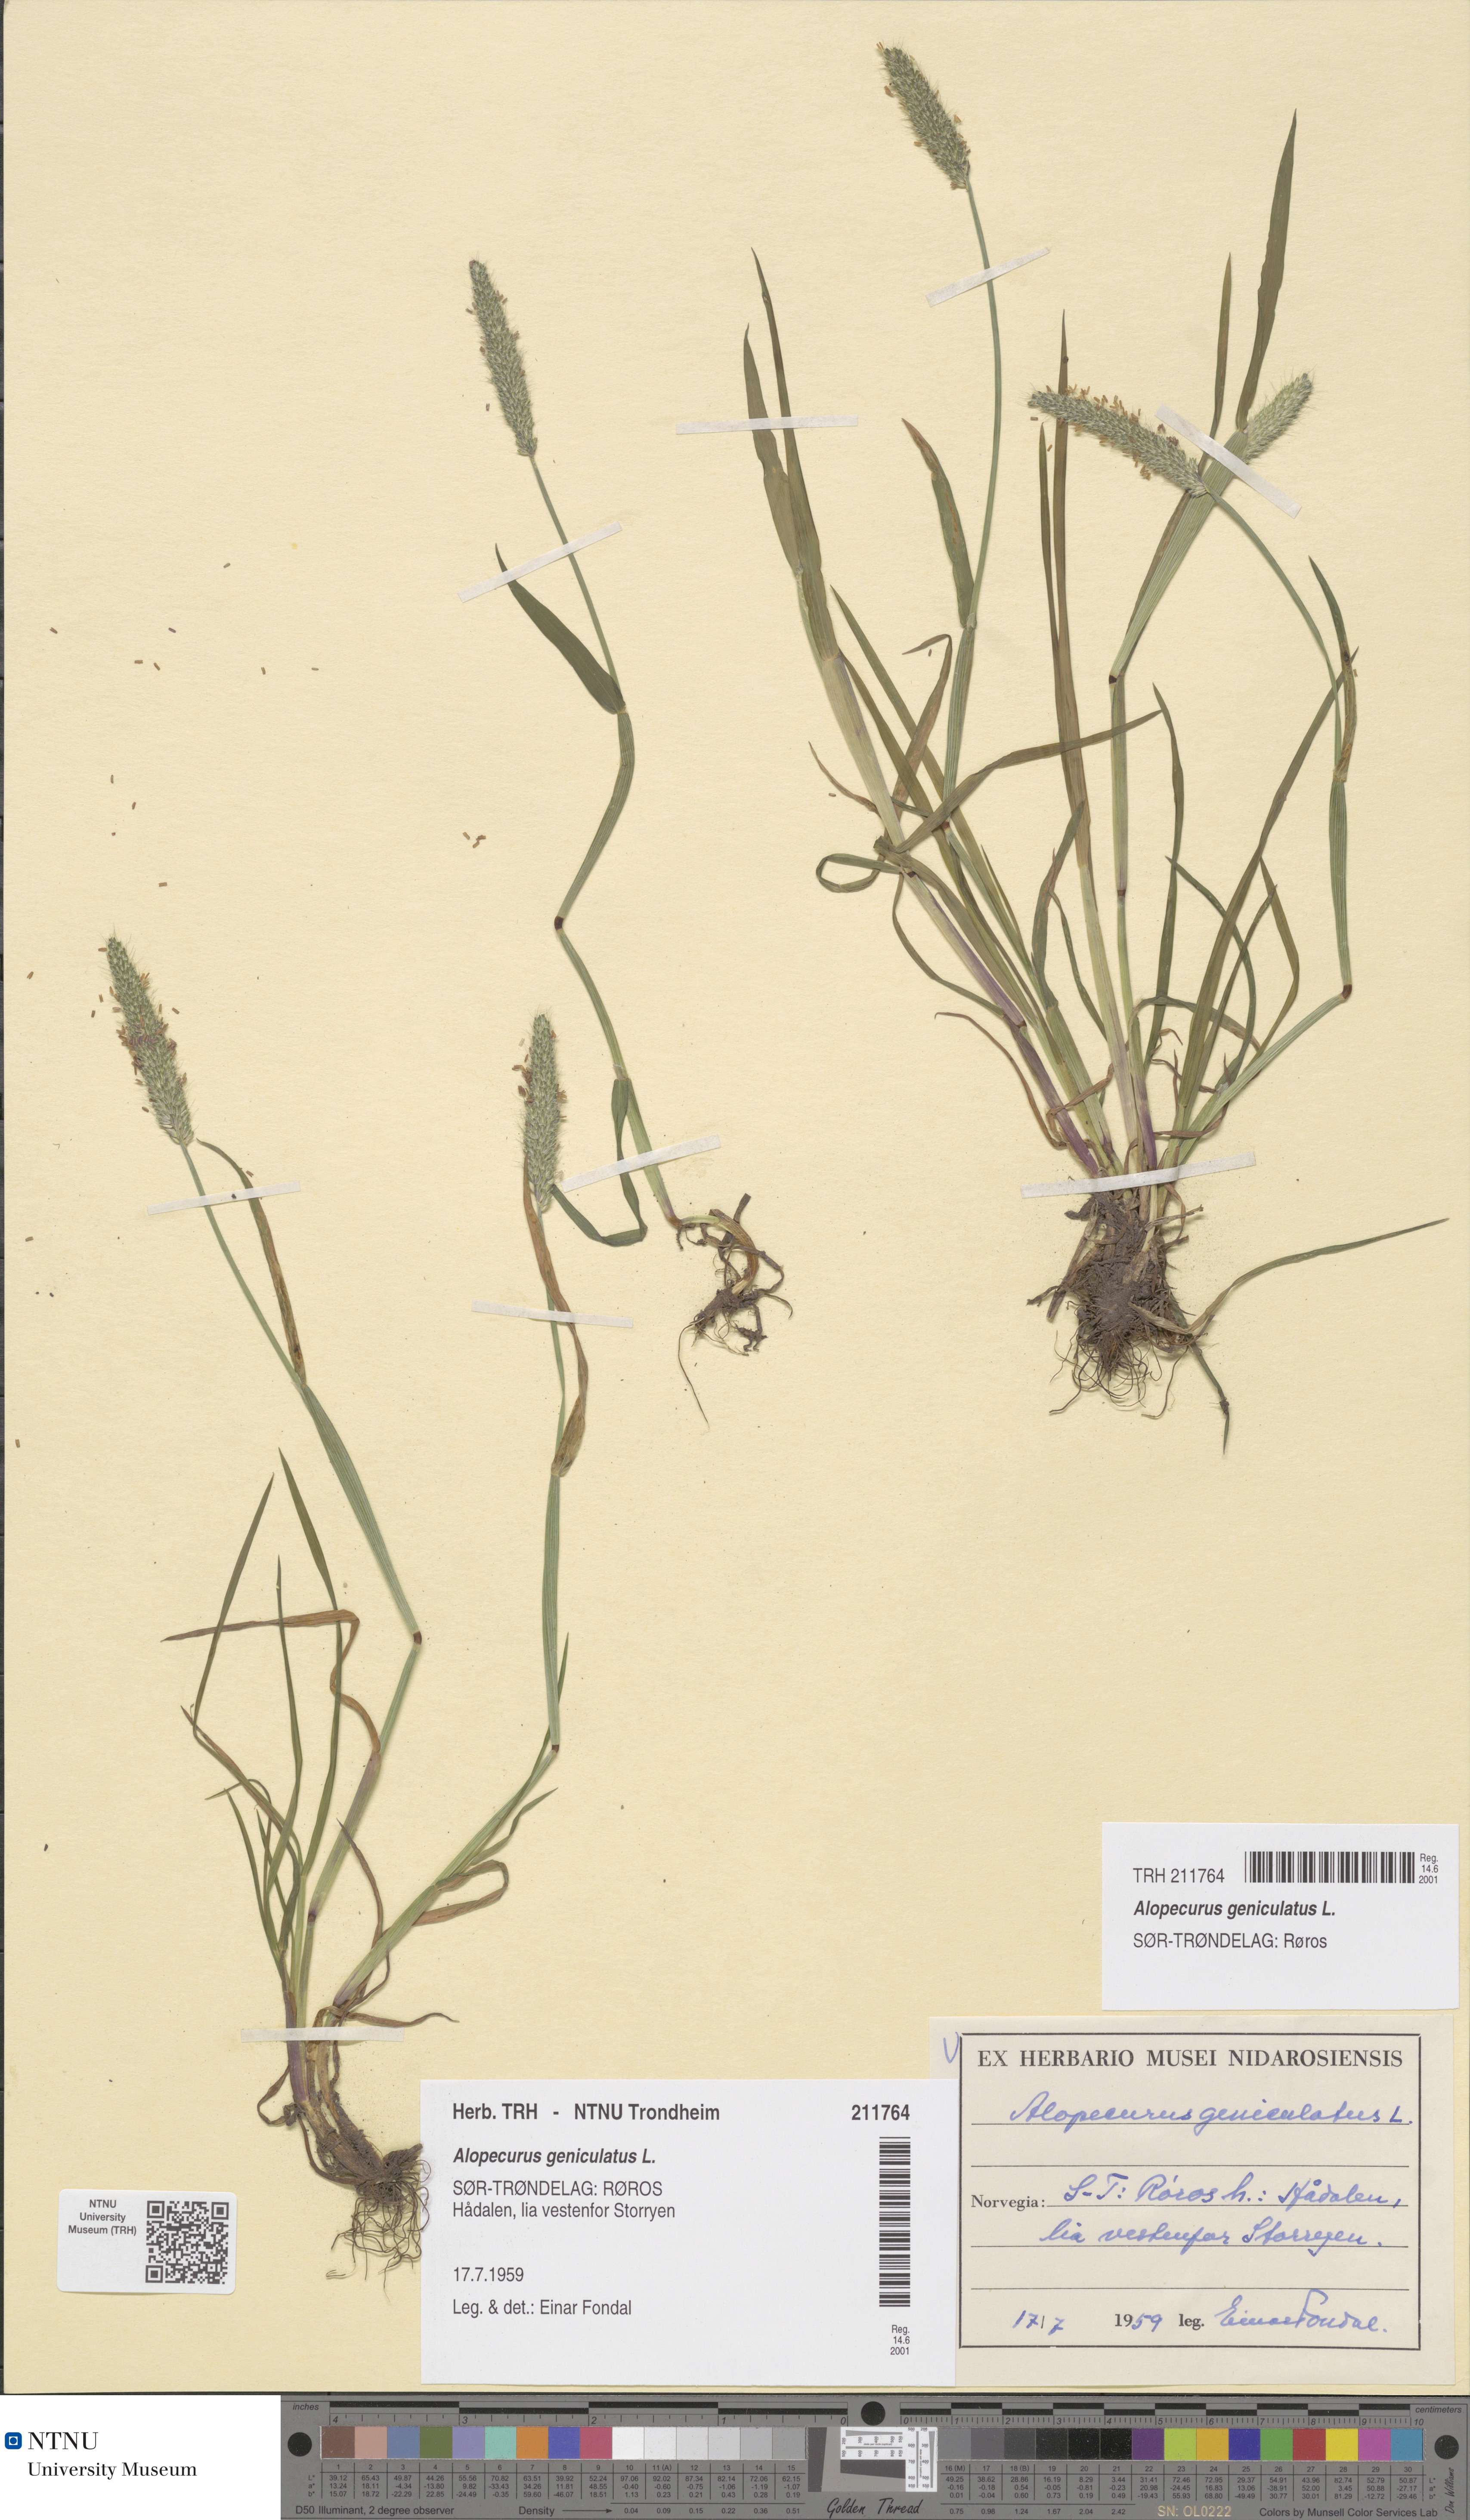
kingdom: Plantae
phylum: Tracheophyta
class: Liliopsida
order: Poales
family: Poaceae
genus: Alopecurus
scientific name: Alopecurus geniculatus
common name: Water foxtail
